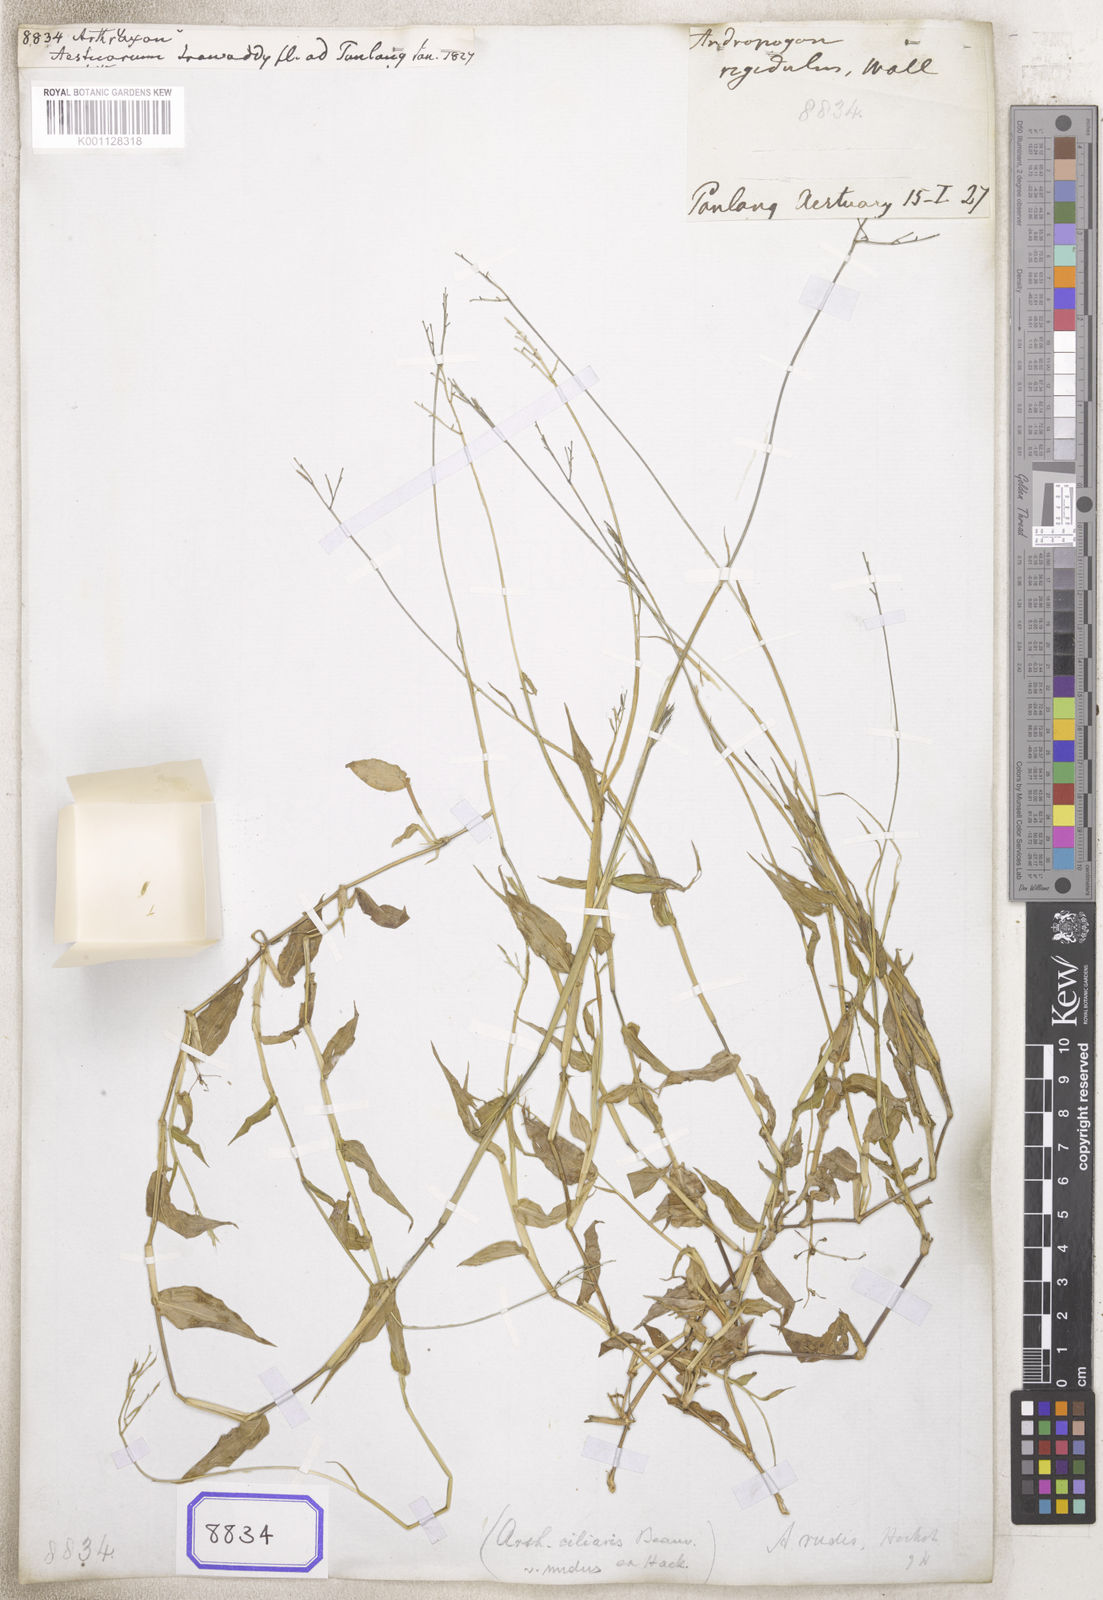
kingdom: Plantae
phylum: Tracheophyta
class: Liliopsida
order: Poales
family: Poaceae
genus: Arthraxon
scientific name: Arthraxon
